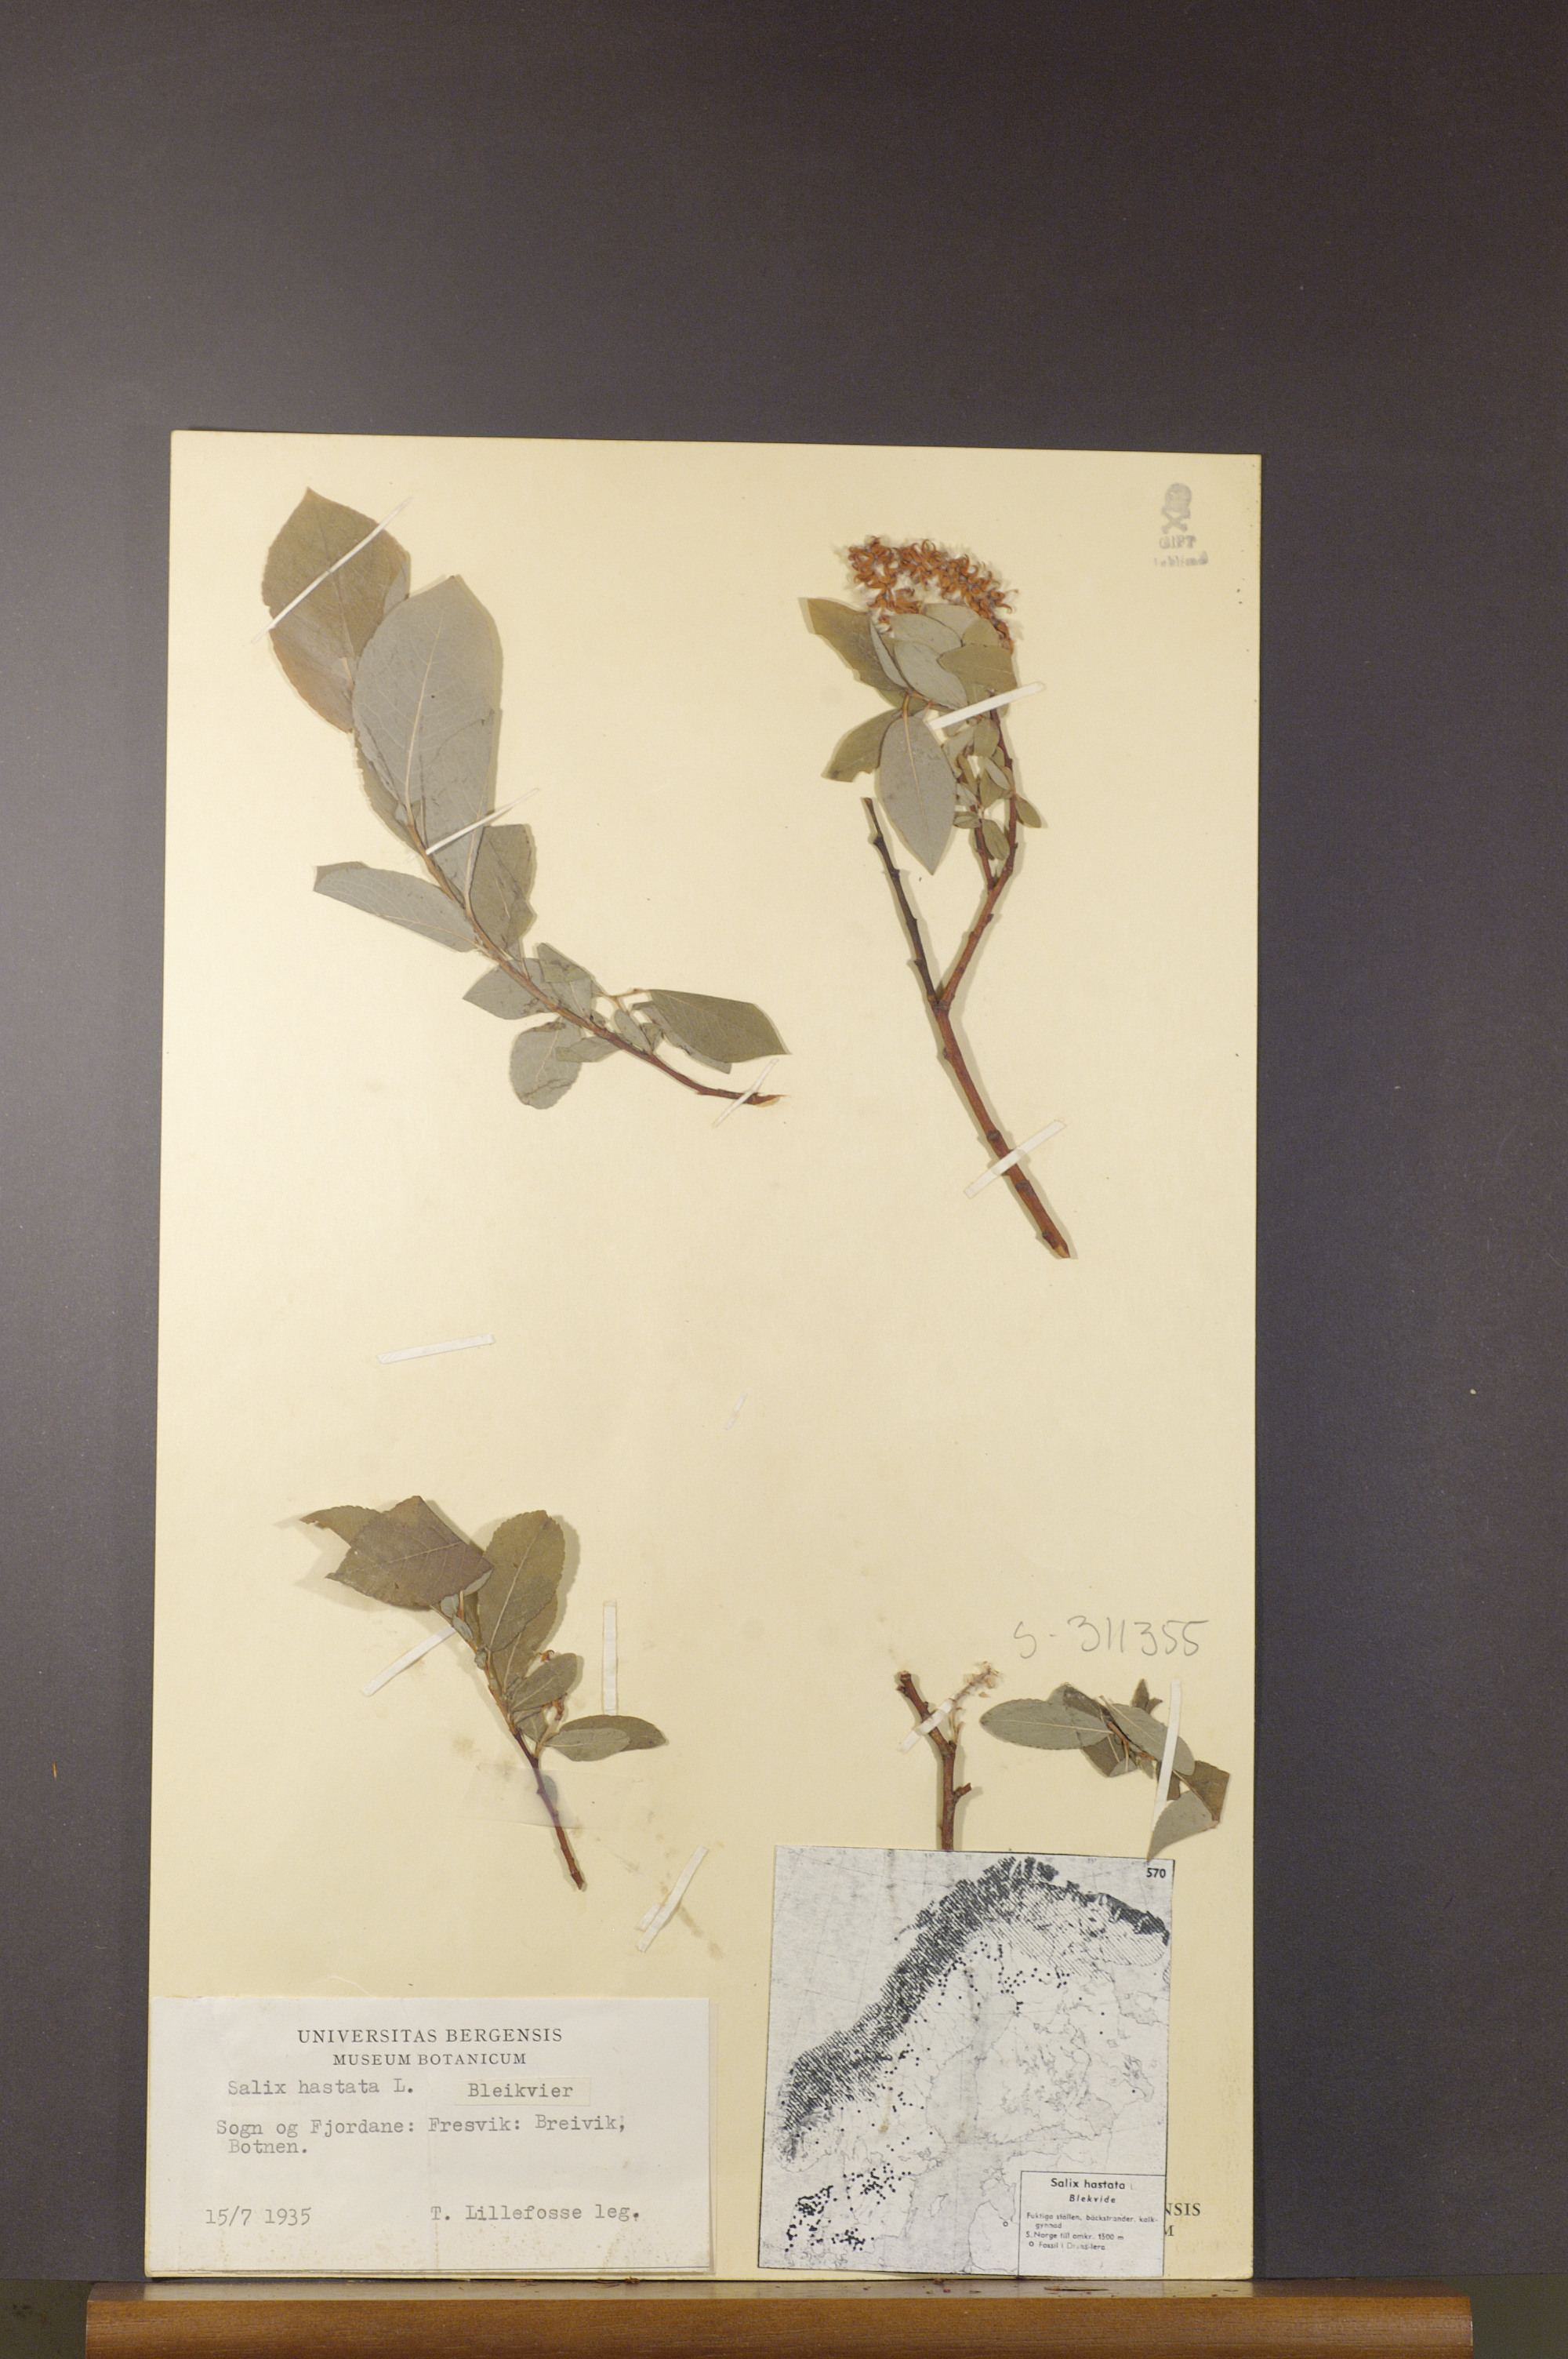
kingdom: Plantae
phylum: Tracheophyta
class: Magnoliopsida
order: Malpighiales
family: Salicaceae
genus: Salix
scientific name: Salix hastata
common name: Halberd willow
